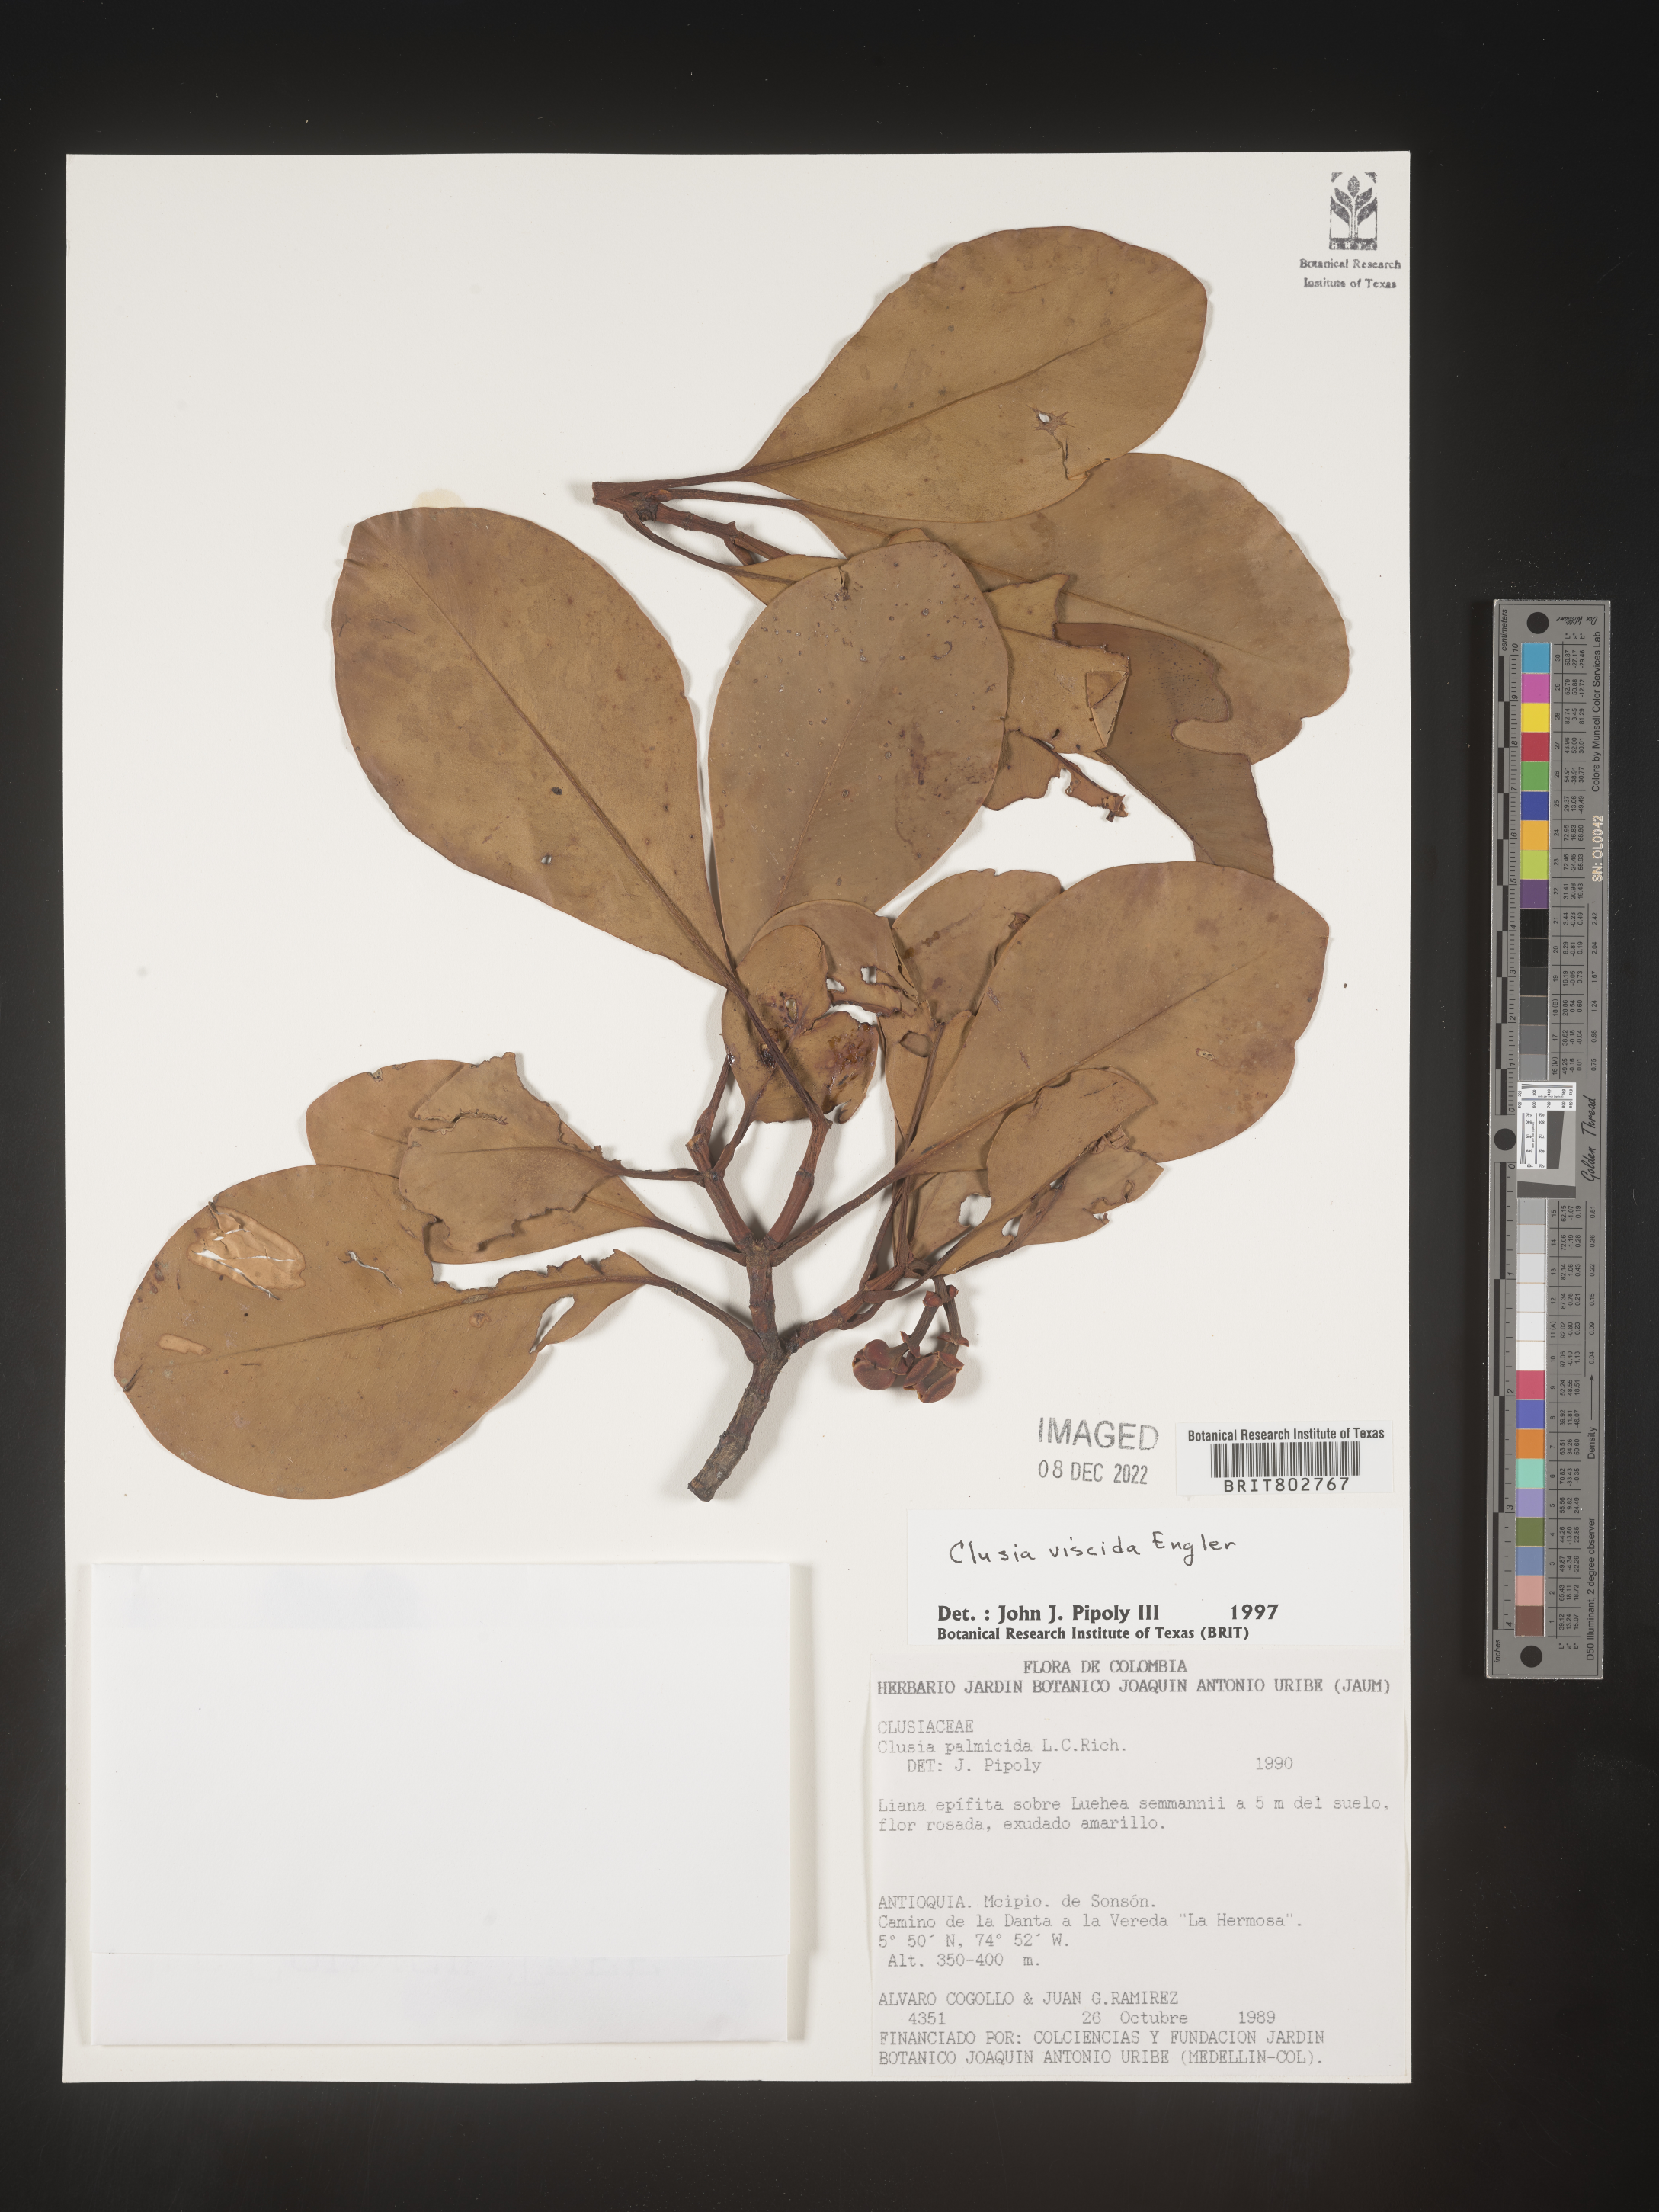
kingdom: Plantae
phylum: Tracheophyta
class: Magnoliopsida
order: Malpighiales
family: Clusiaceae
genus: Clusia
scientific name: Clusia viscida
